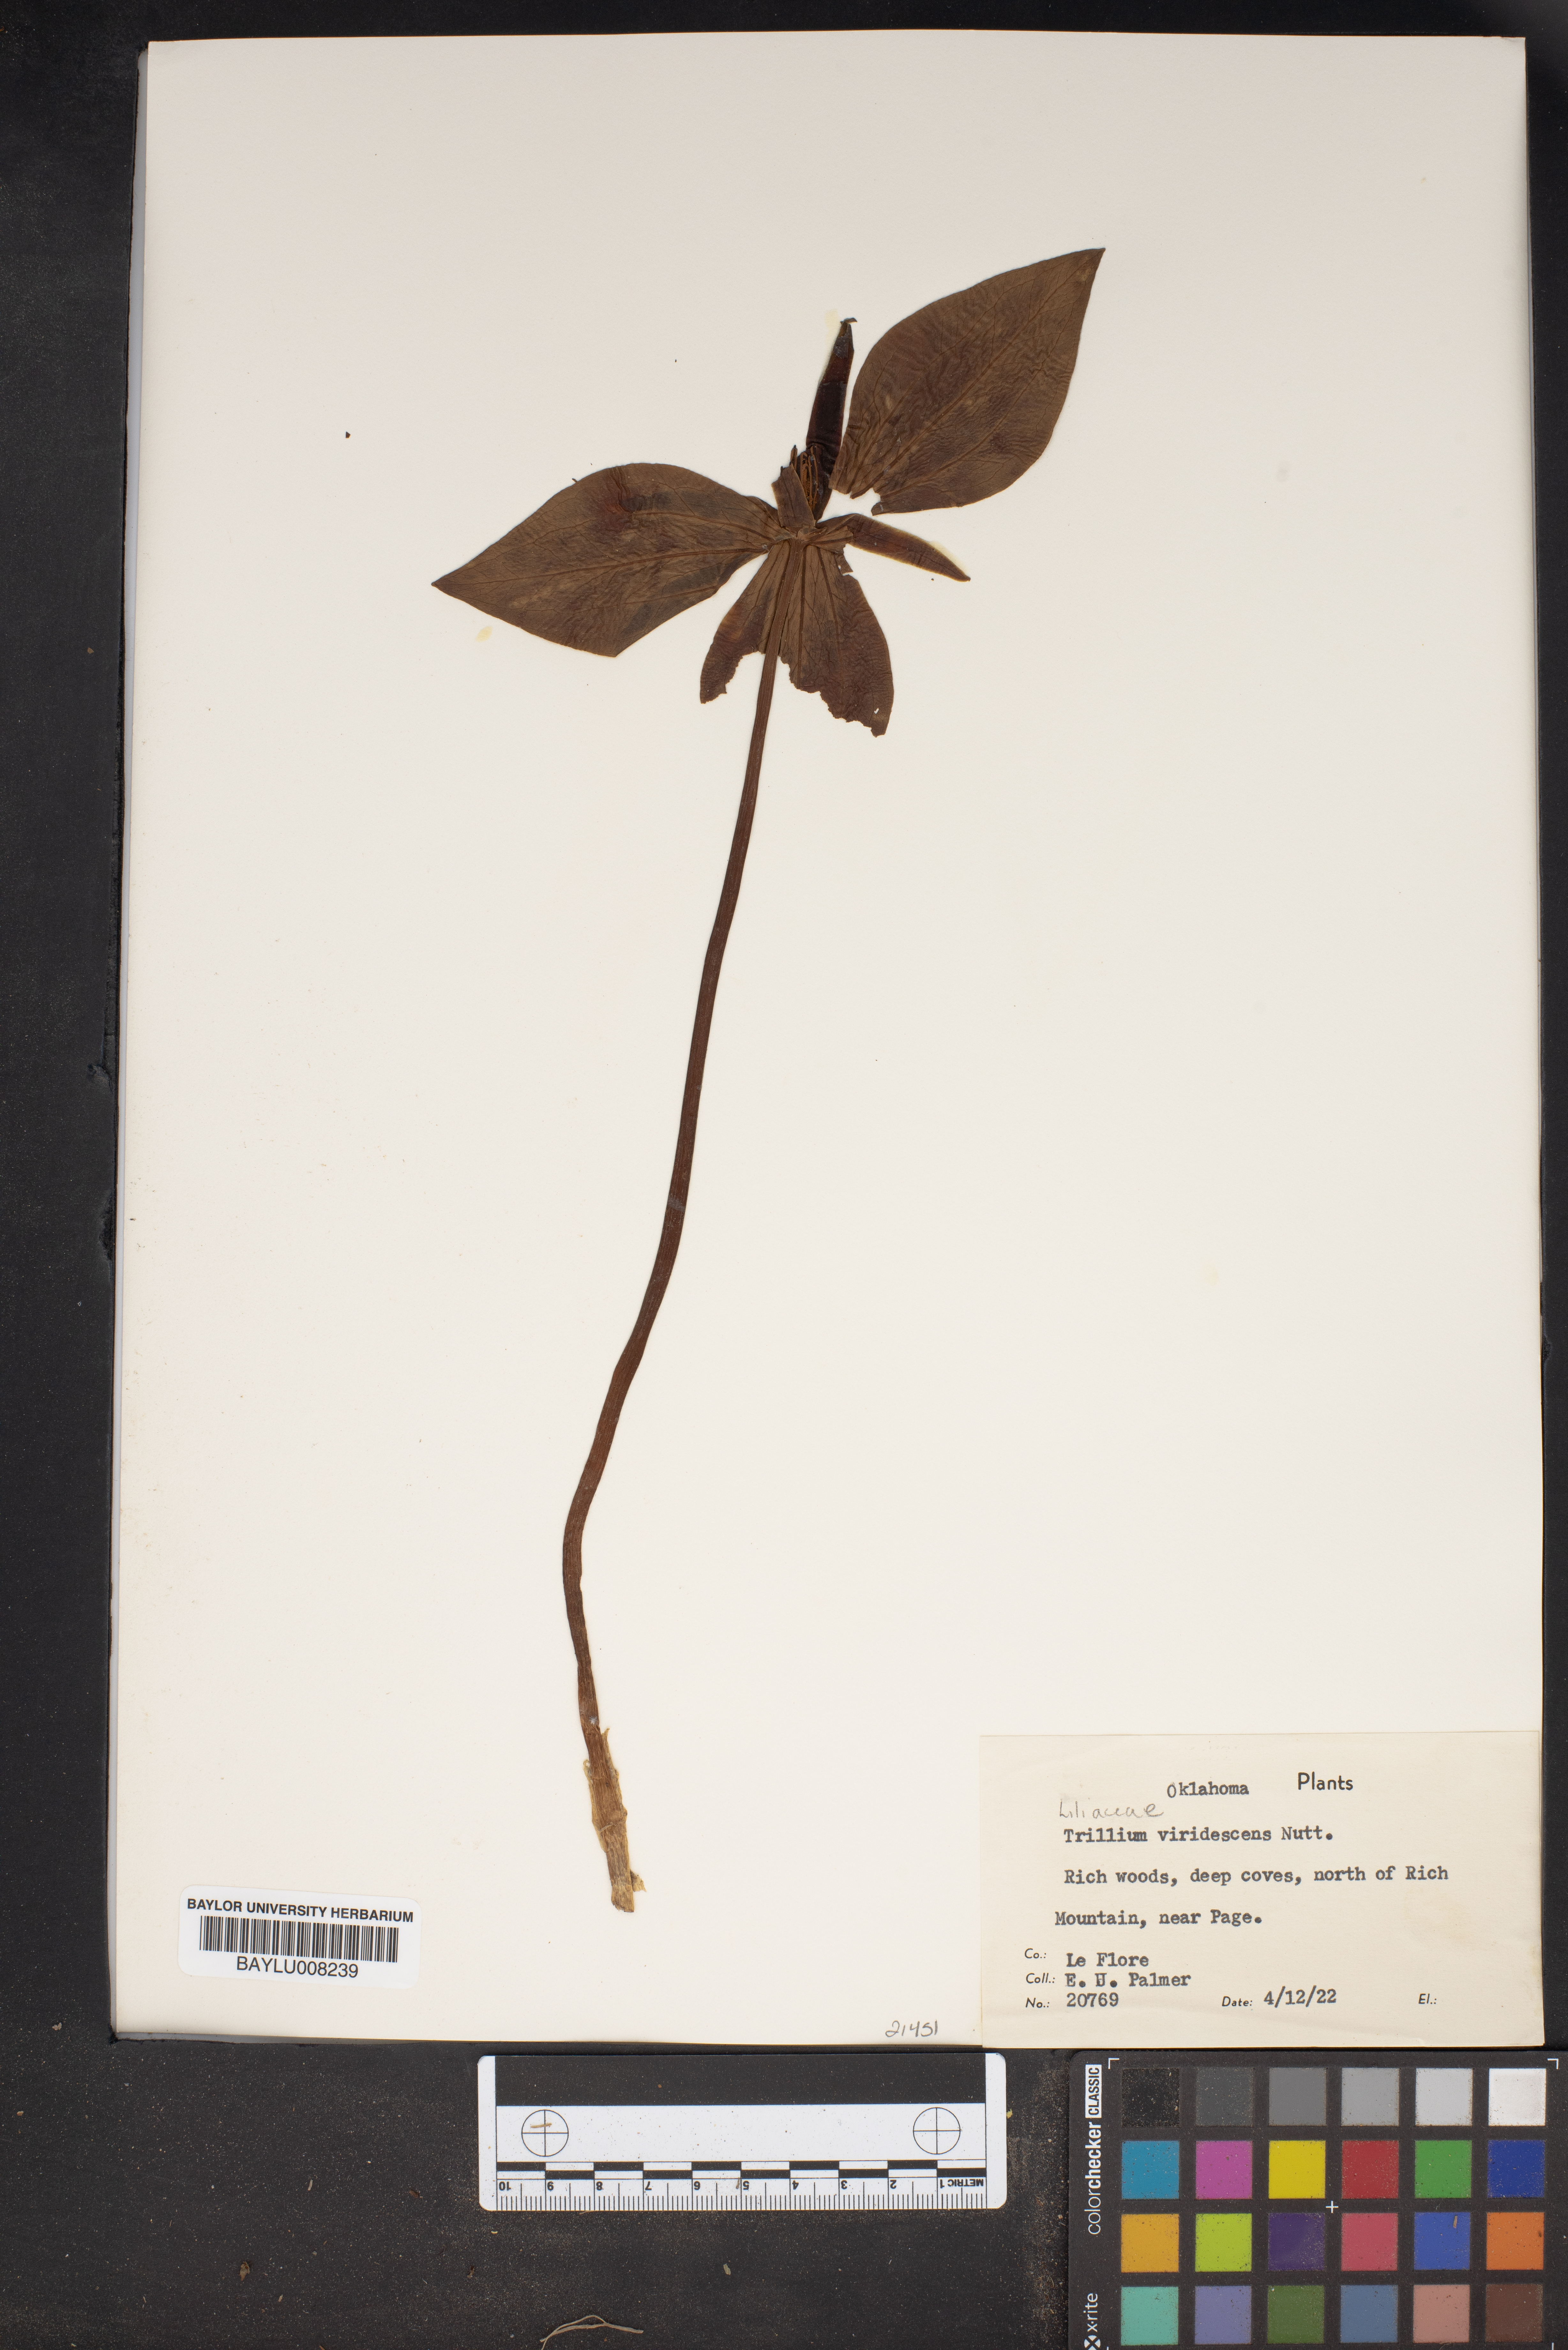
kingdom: Plantae
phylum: Tracheophyta
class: Liliopsida
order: Liliales
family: Melanthiaceae
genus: Trillium
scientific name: Trillium viridescens
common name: Ozark green trillium
